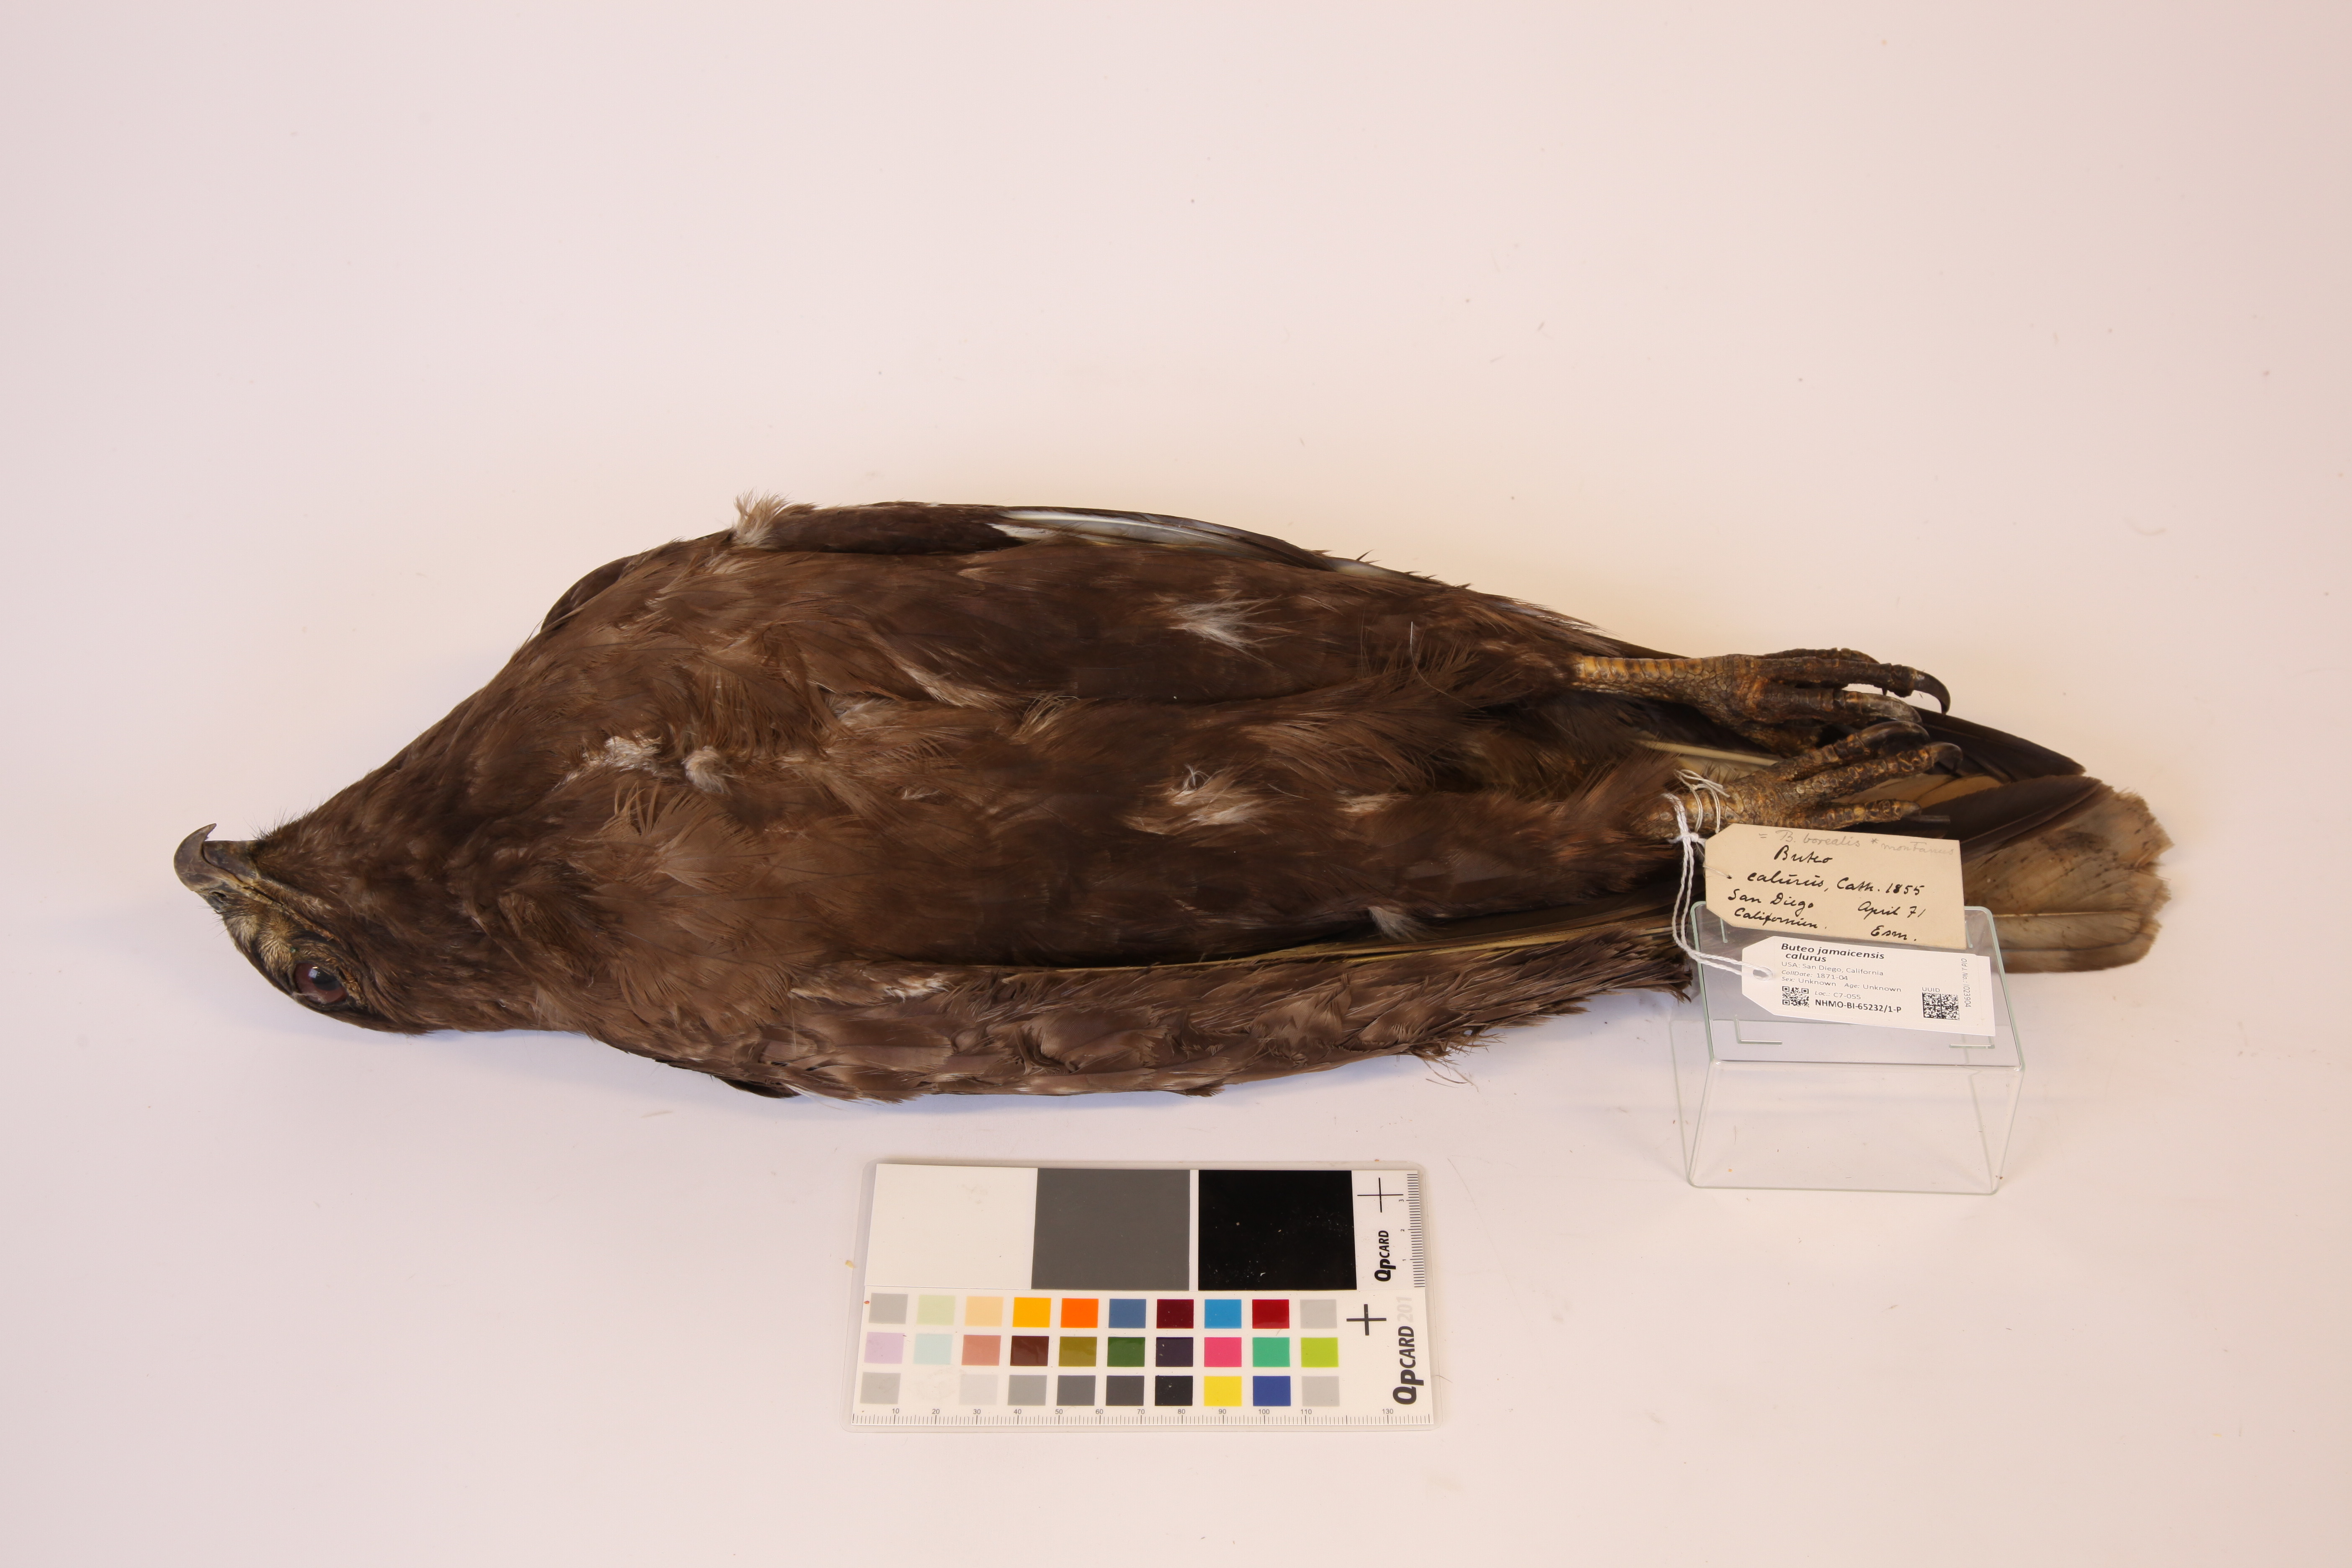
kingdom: Animalia
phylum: Chordata
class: Aves
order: Accipitriformes
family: Accipitridae
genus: Buteo
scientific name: Buteo jamaicensis
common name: Red-tailed hawk
